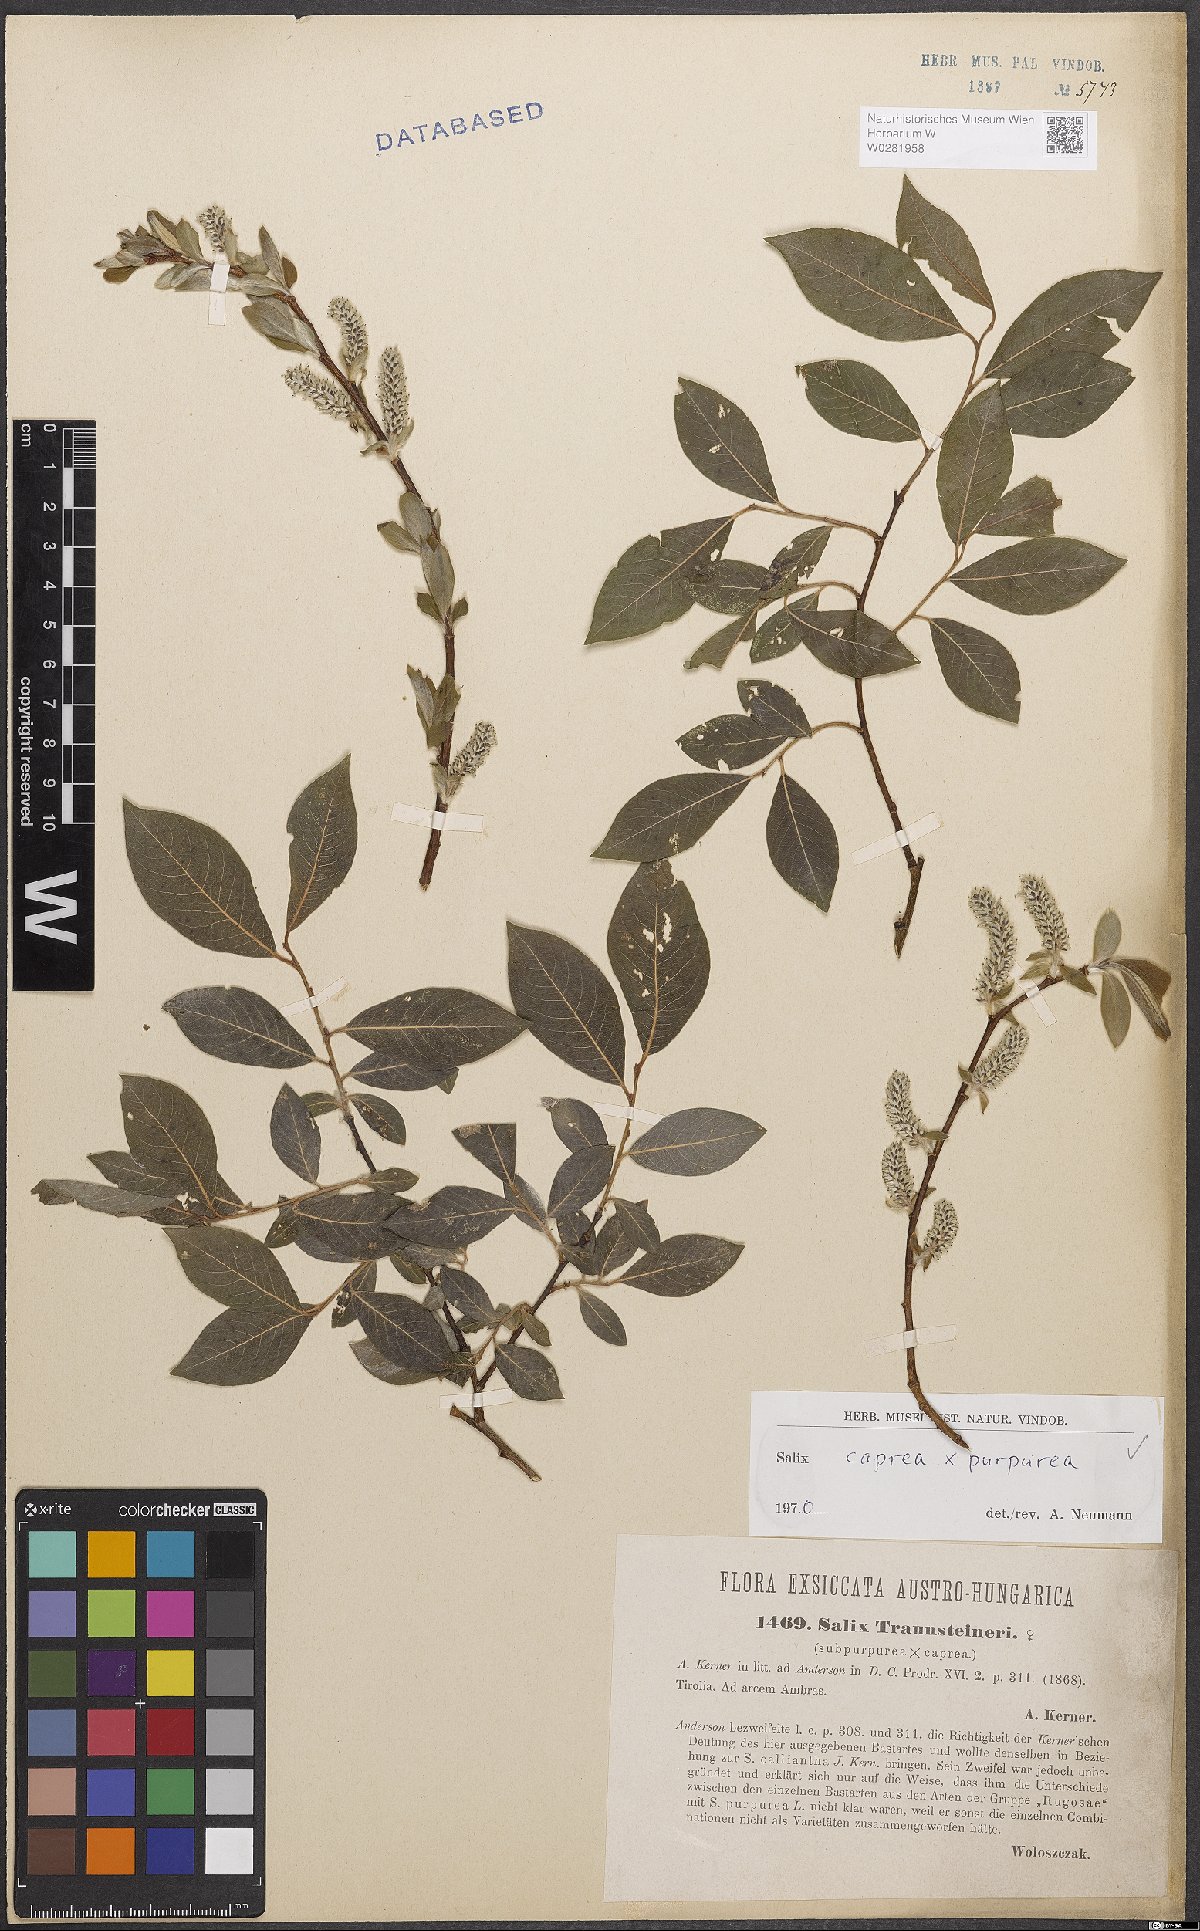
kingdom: Plantae
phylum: Tracheophyta
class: Magnoliopsida
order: Malpighiales
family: Salicaceae
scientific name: Salicaceae
